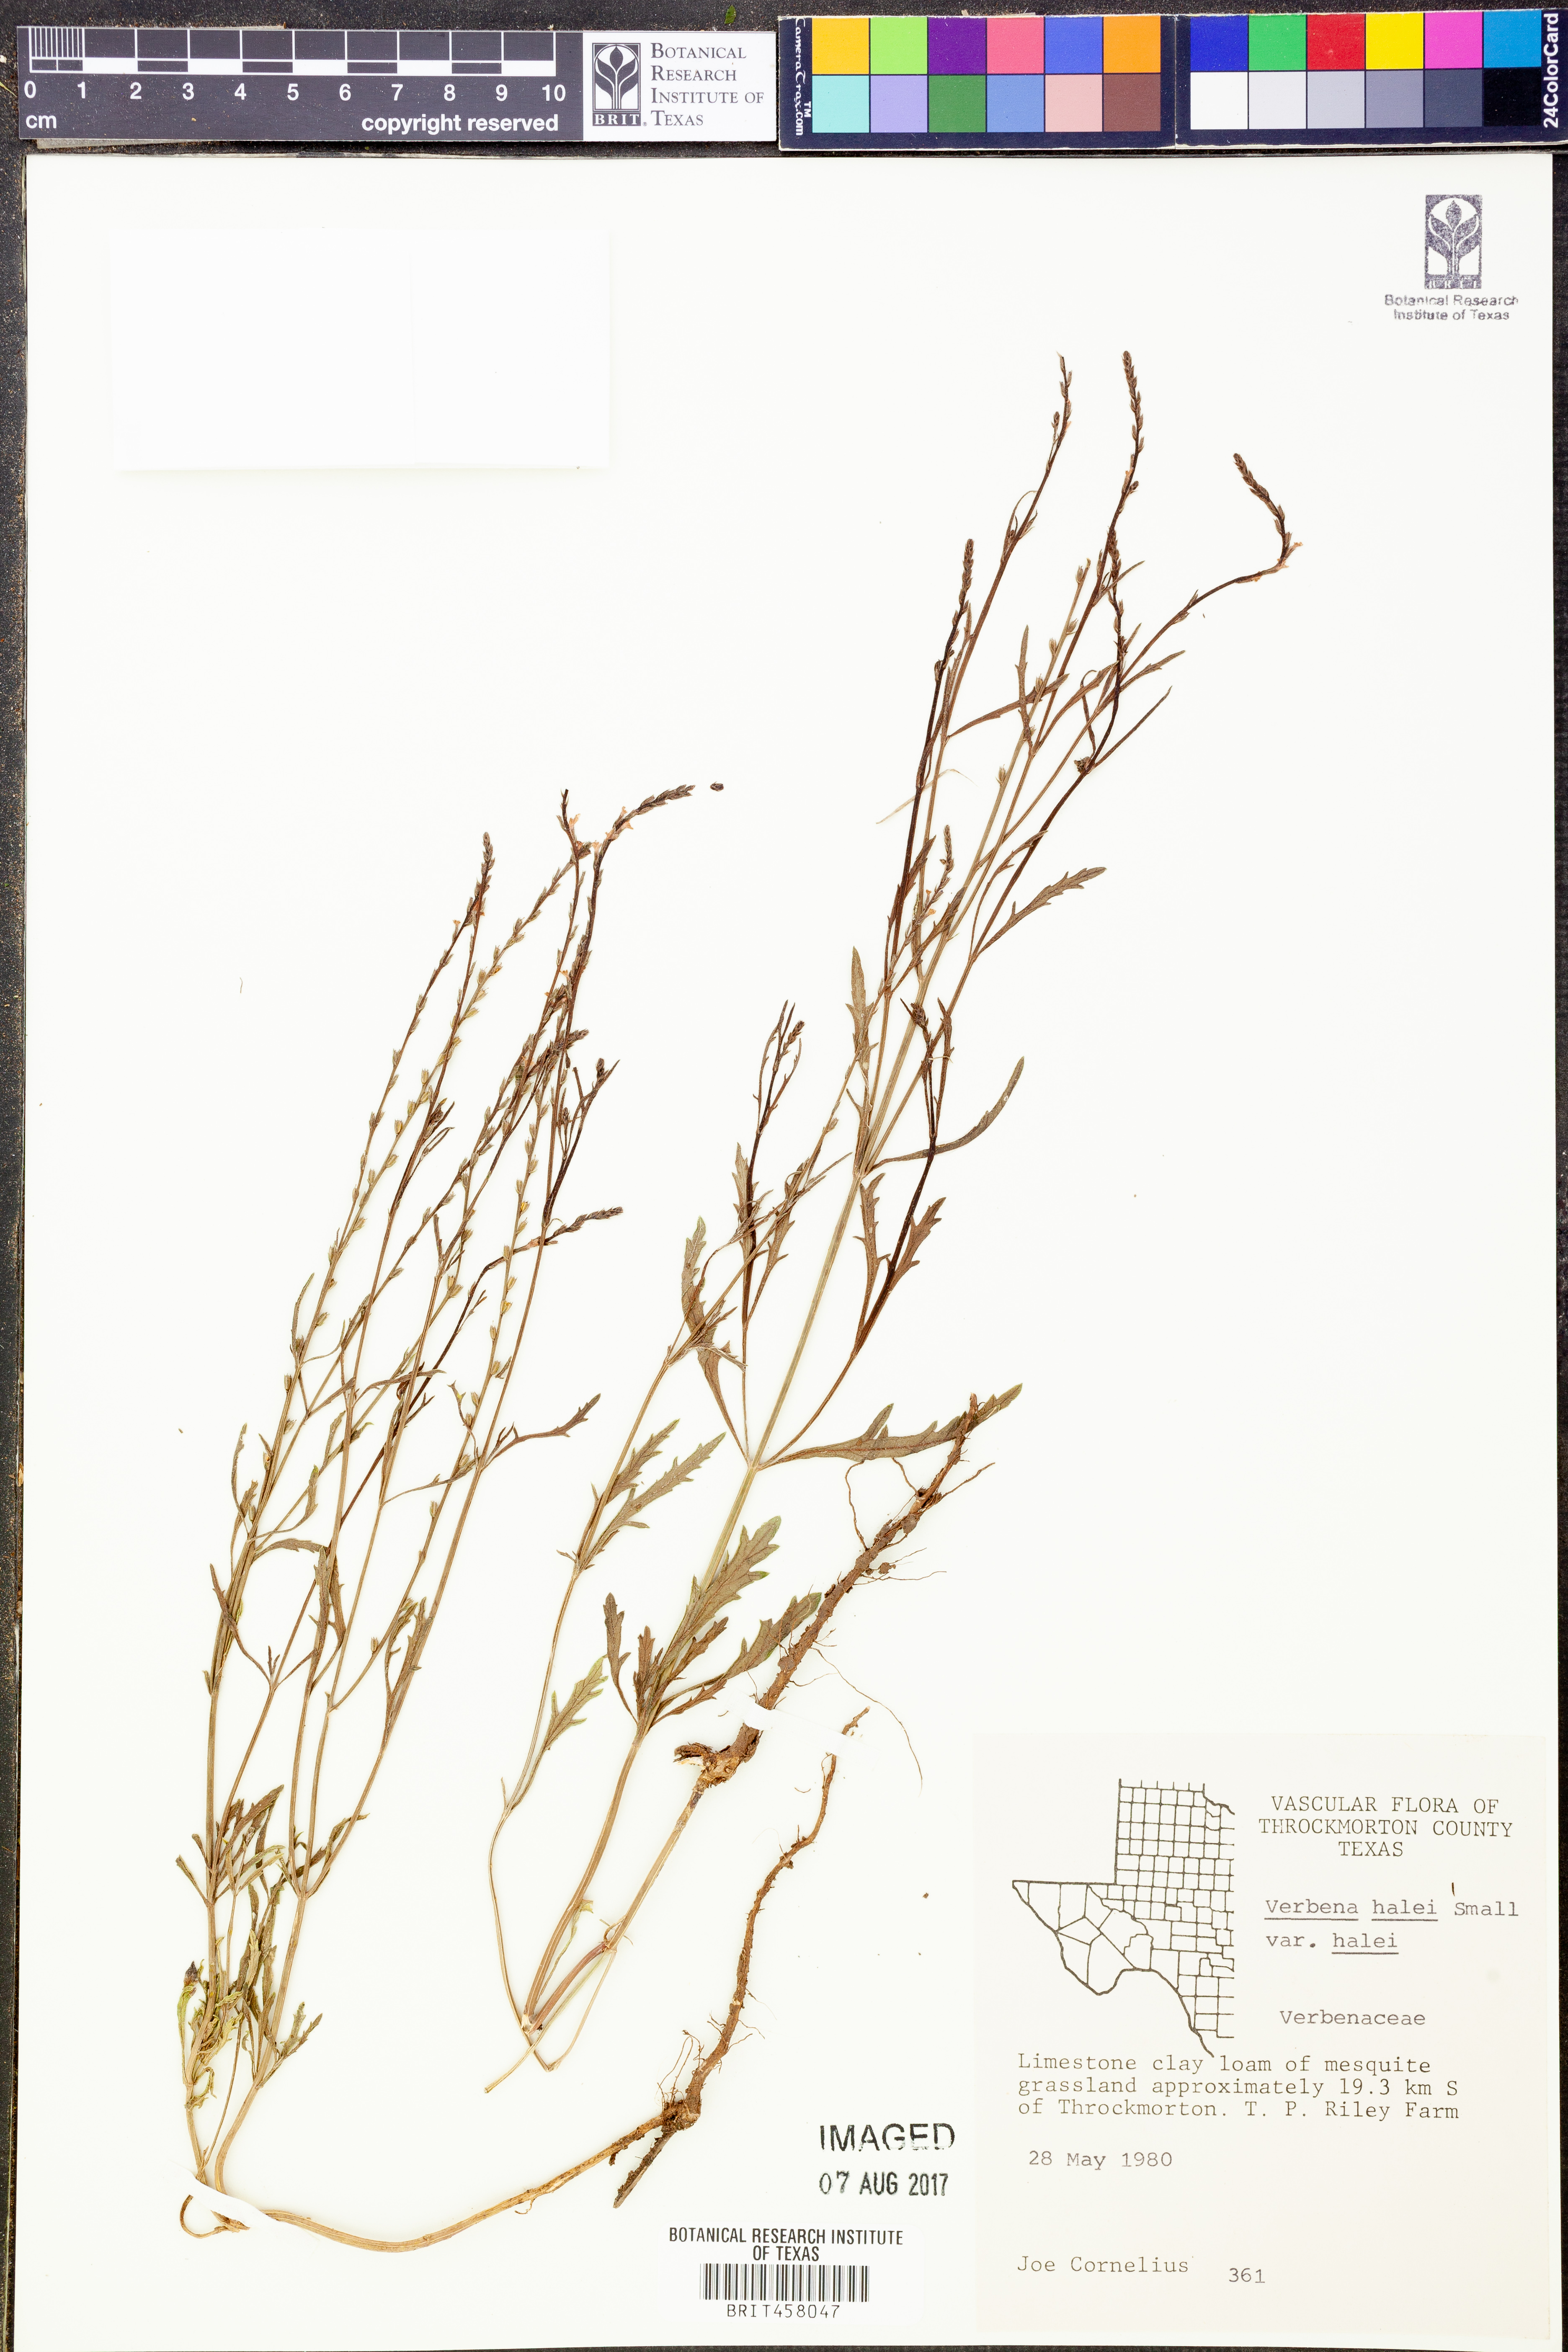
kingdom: Plantae
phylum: Tracheophyta
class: Magnoliopsida
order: Lamiales
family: Verbenaceae
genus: Verbena
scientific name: Verbena halei
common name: Texas vervain
